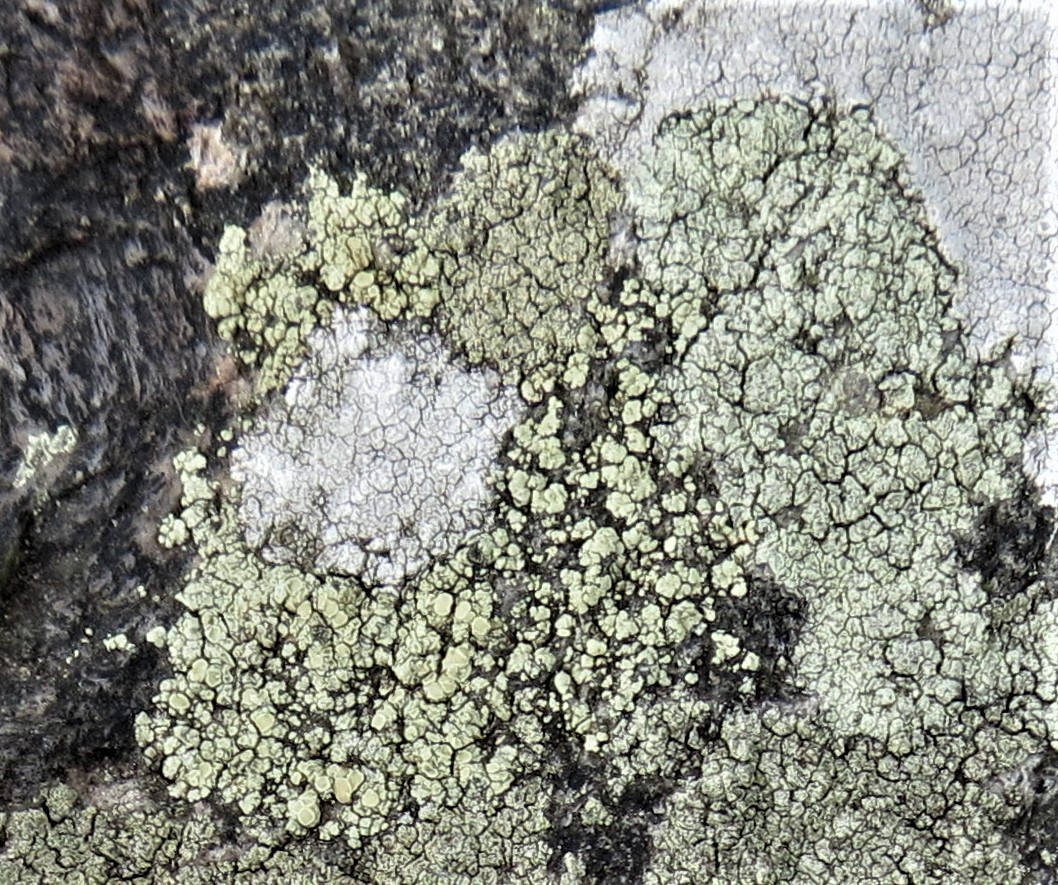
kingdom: Fungi
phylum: Ascomycota
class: Lecanoromycetes
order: Lecanorales
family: Lecanoraceae
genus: Lecanora
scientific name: Lecanora polytropa
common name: bleggrøn kantskivelav
